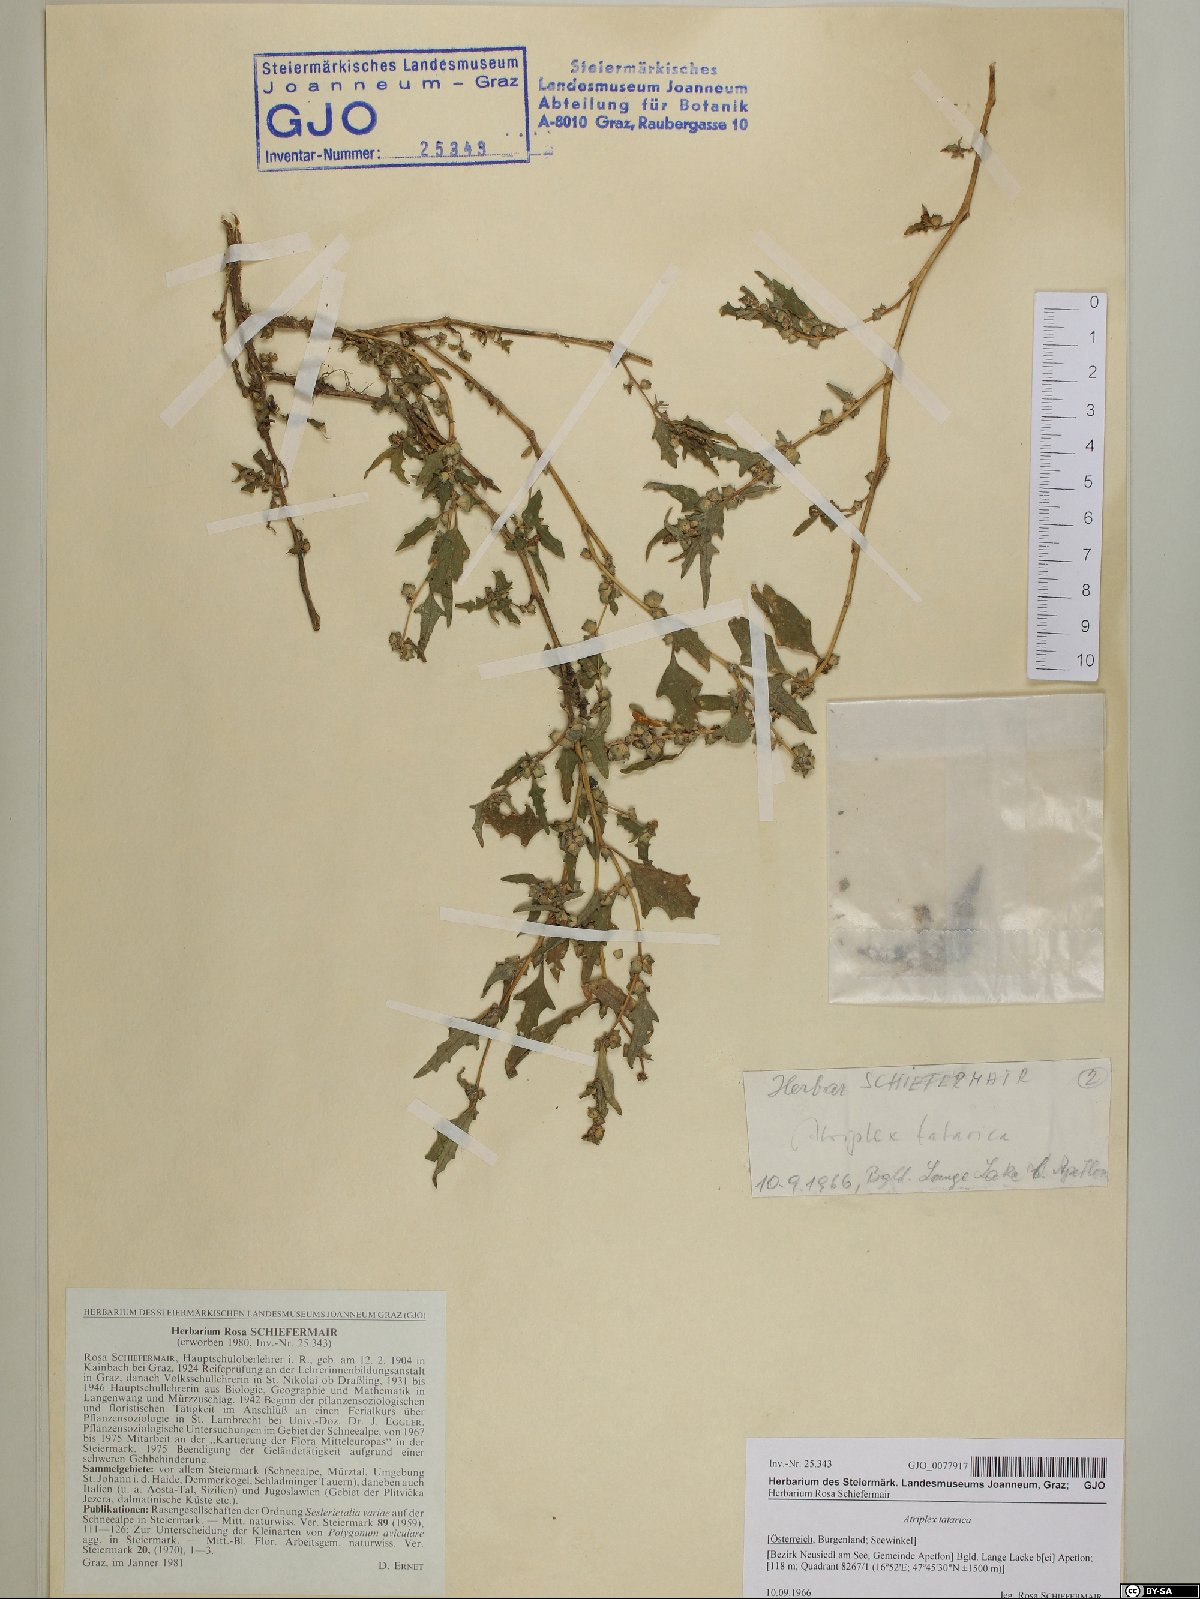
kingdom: Plantae
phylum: Tracheophyta
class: Magnoliopsida
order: Caryophyllales
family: Amaranthaceae
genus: Atriplex
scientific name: Atriplex tatarica
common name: Tatarian orache
